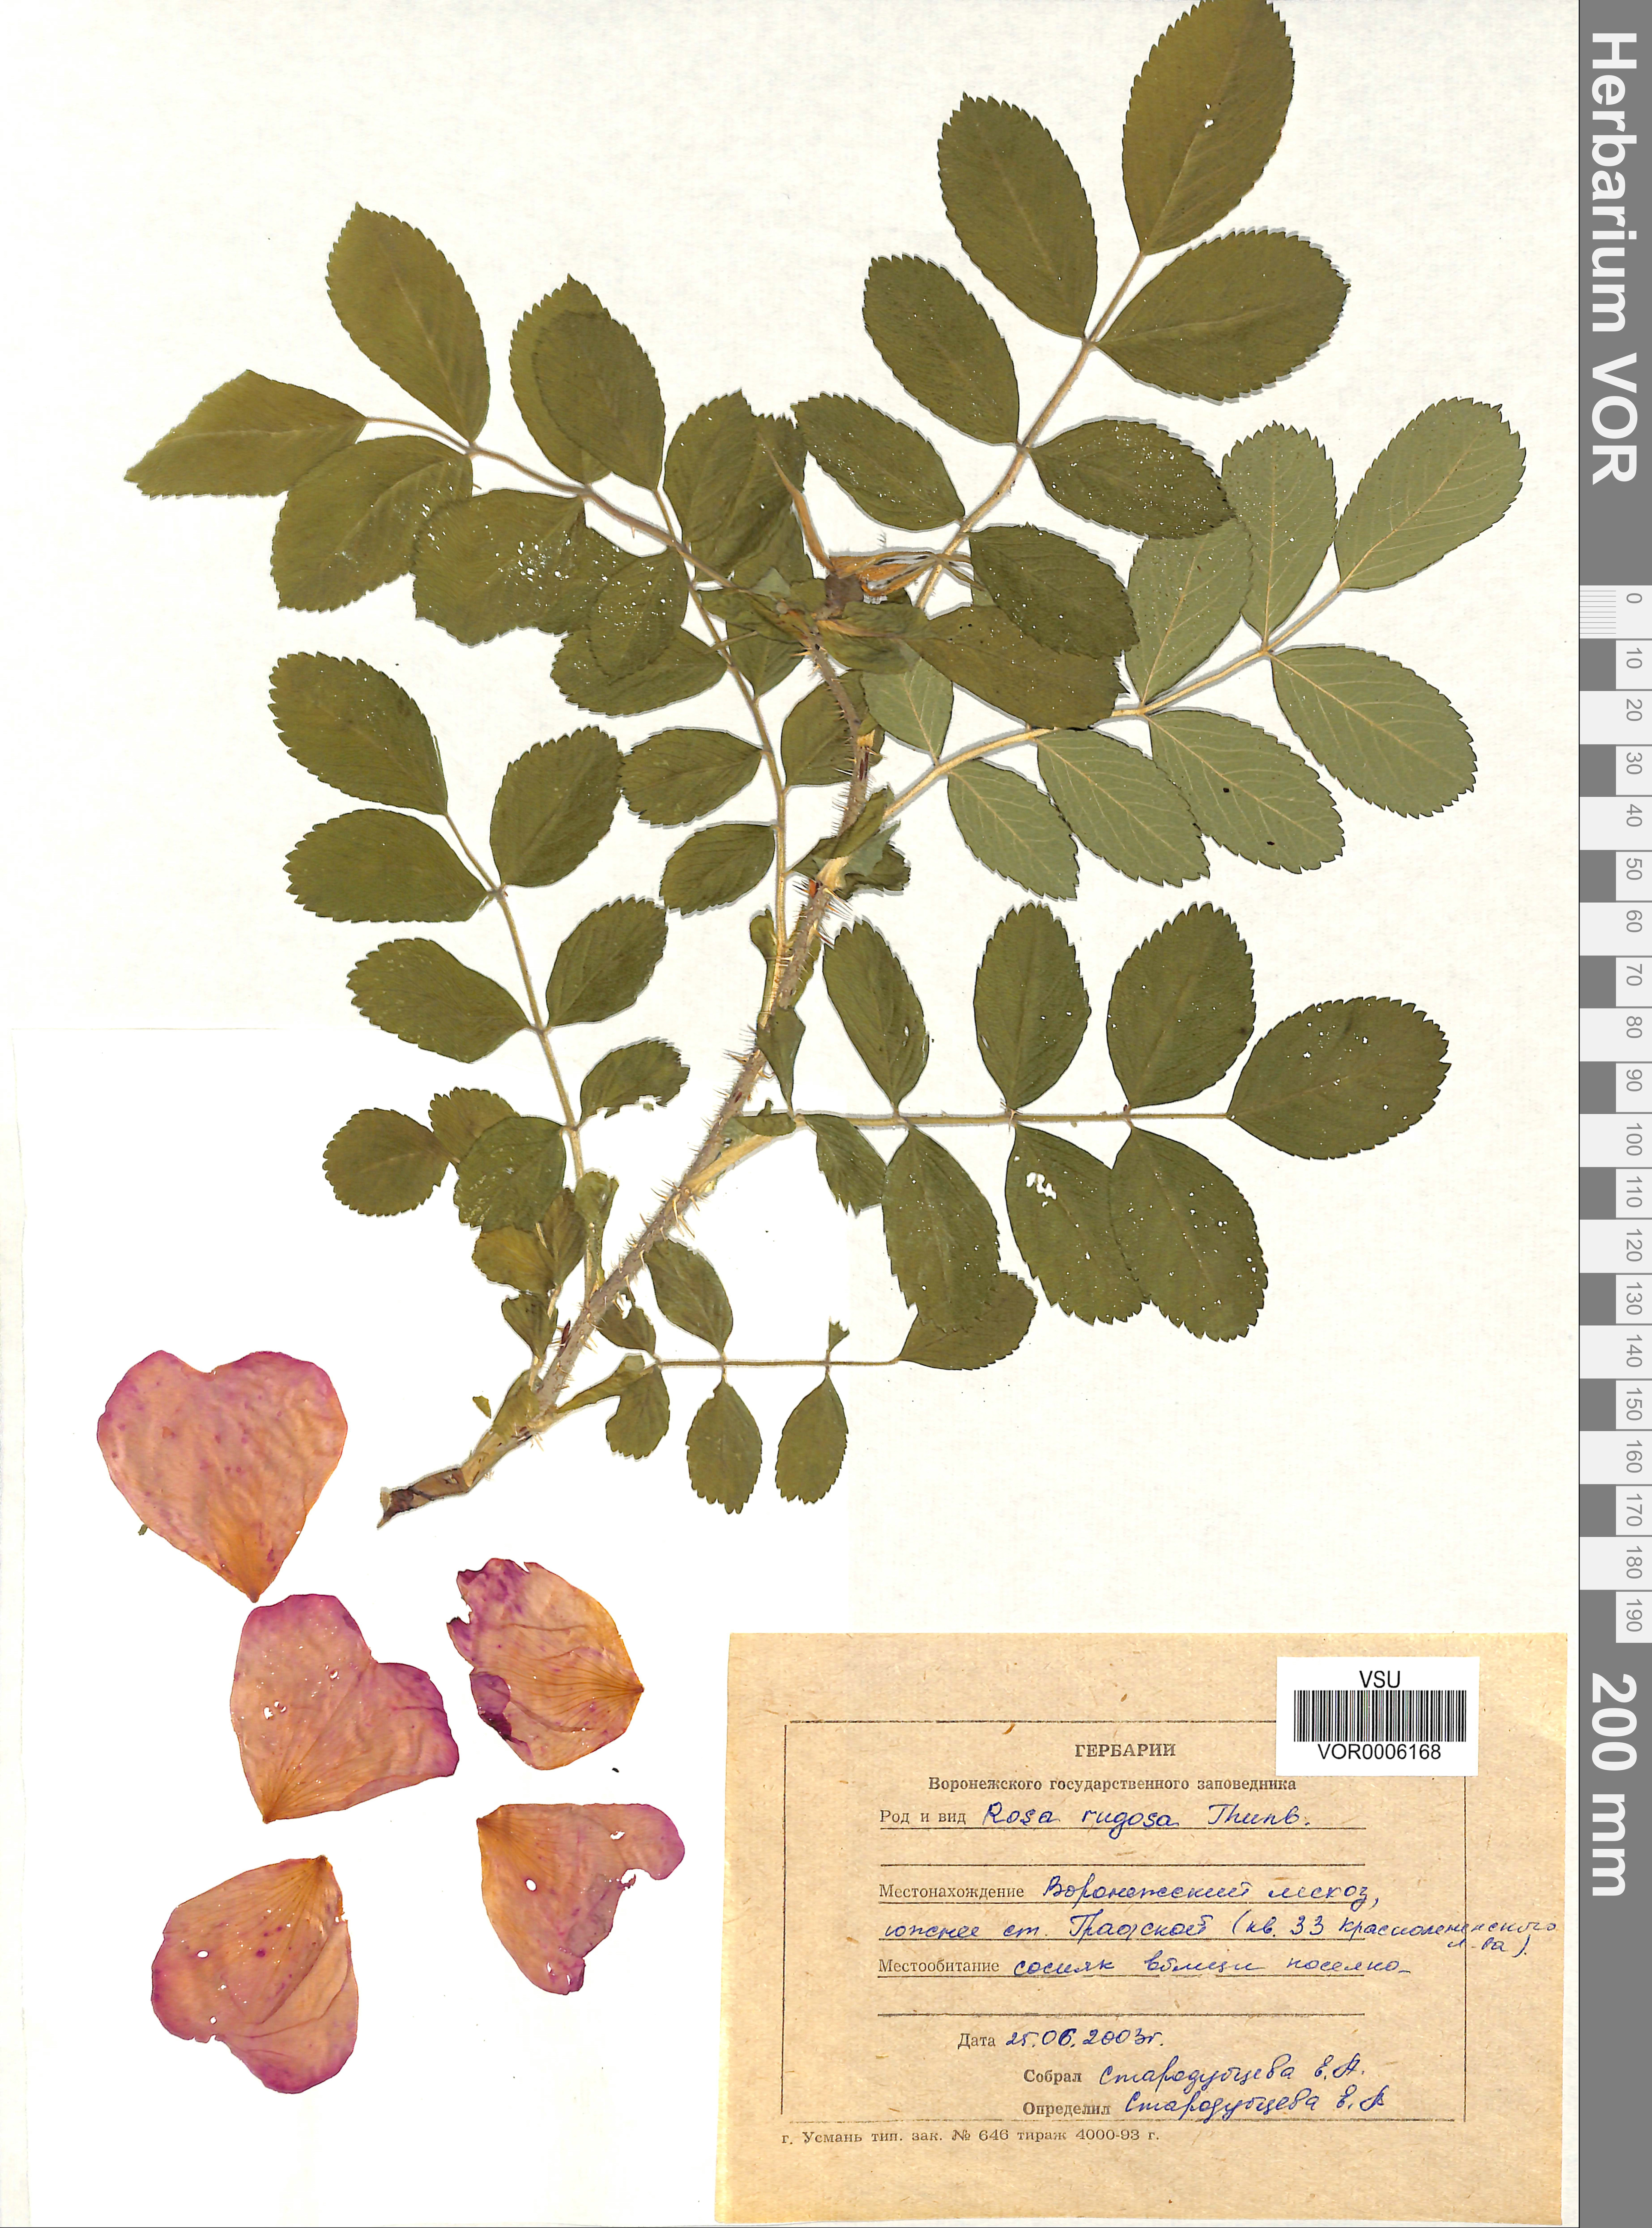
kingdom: Plantae
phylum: Tracheophyta
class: Magnoliopsida
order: Rosales
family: Rosaceae
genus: Rosa
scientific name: Rosa rugosa
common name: Japanese rose
